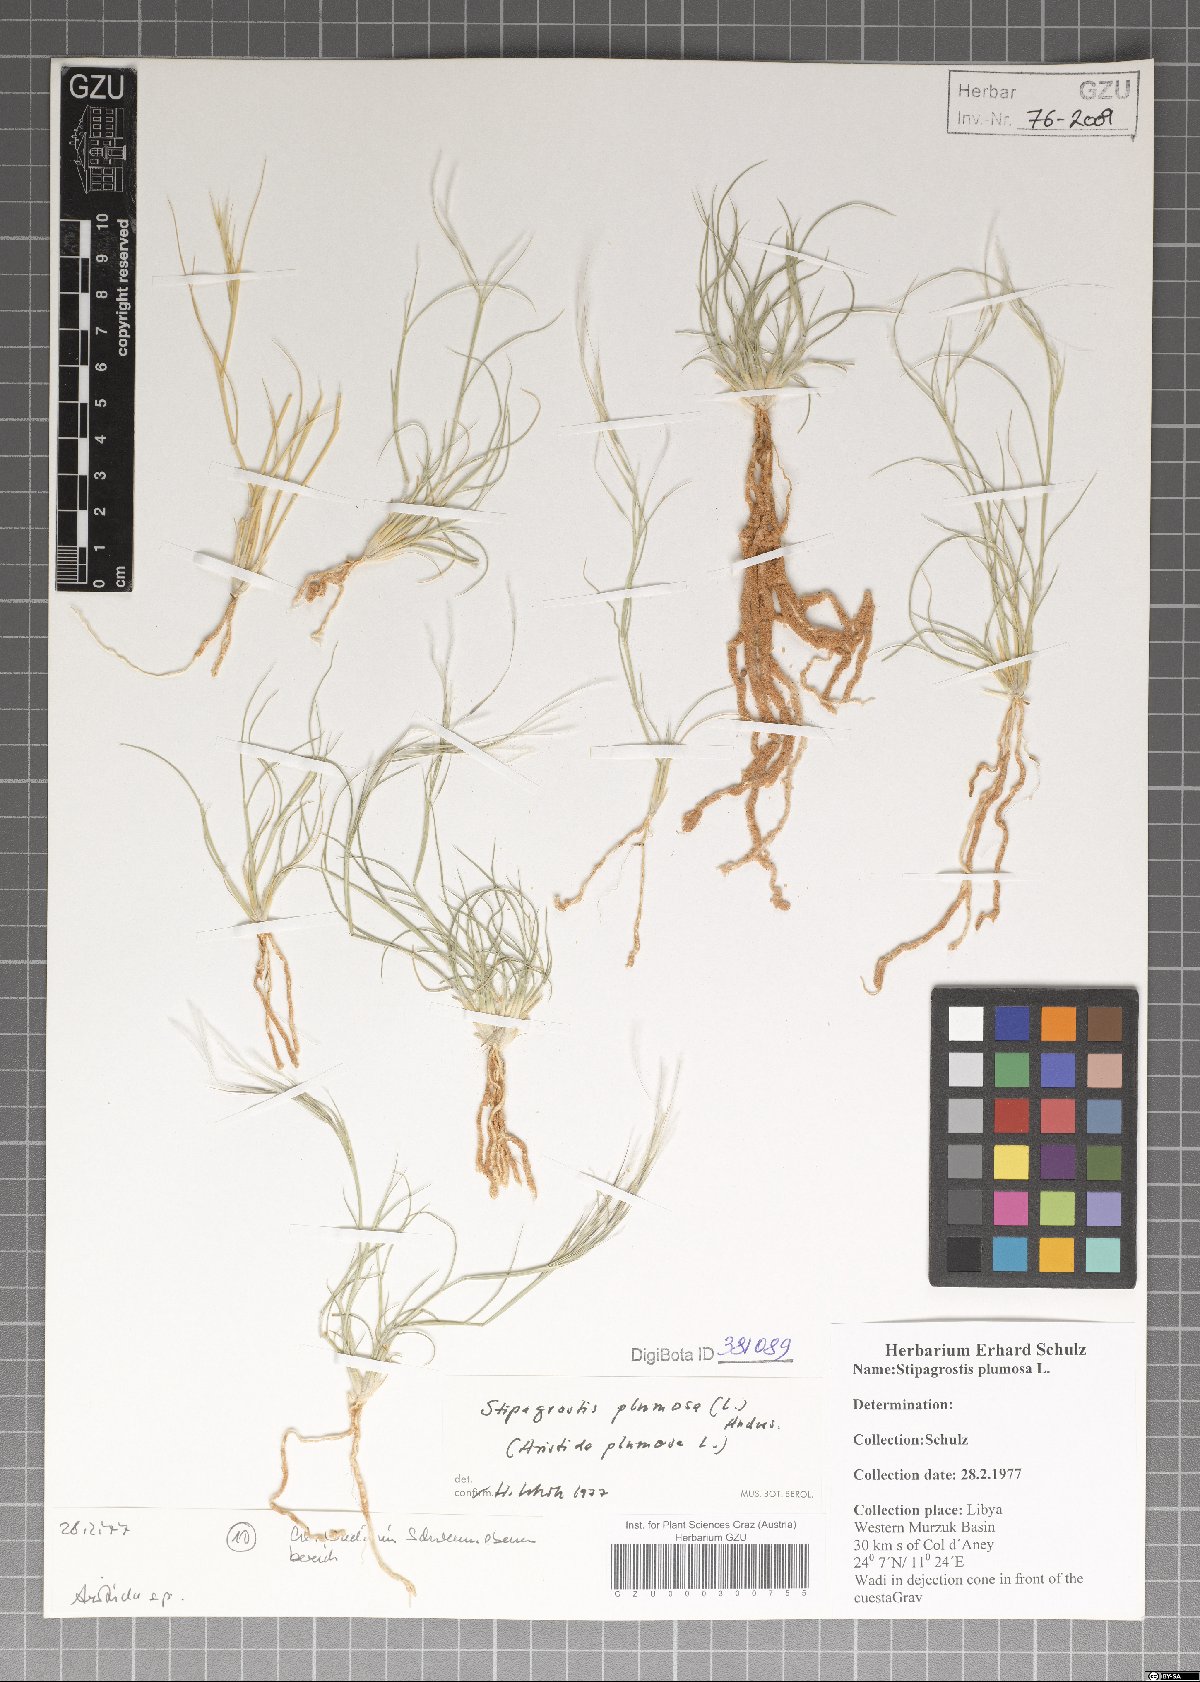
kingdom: Plantae
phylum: Tracheophyta
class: Liliopsida
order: Poales
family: Poaceae
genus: Stipagrostis
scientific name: Stipagrostis plumosa
